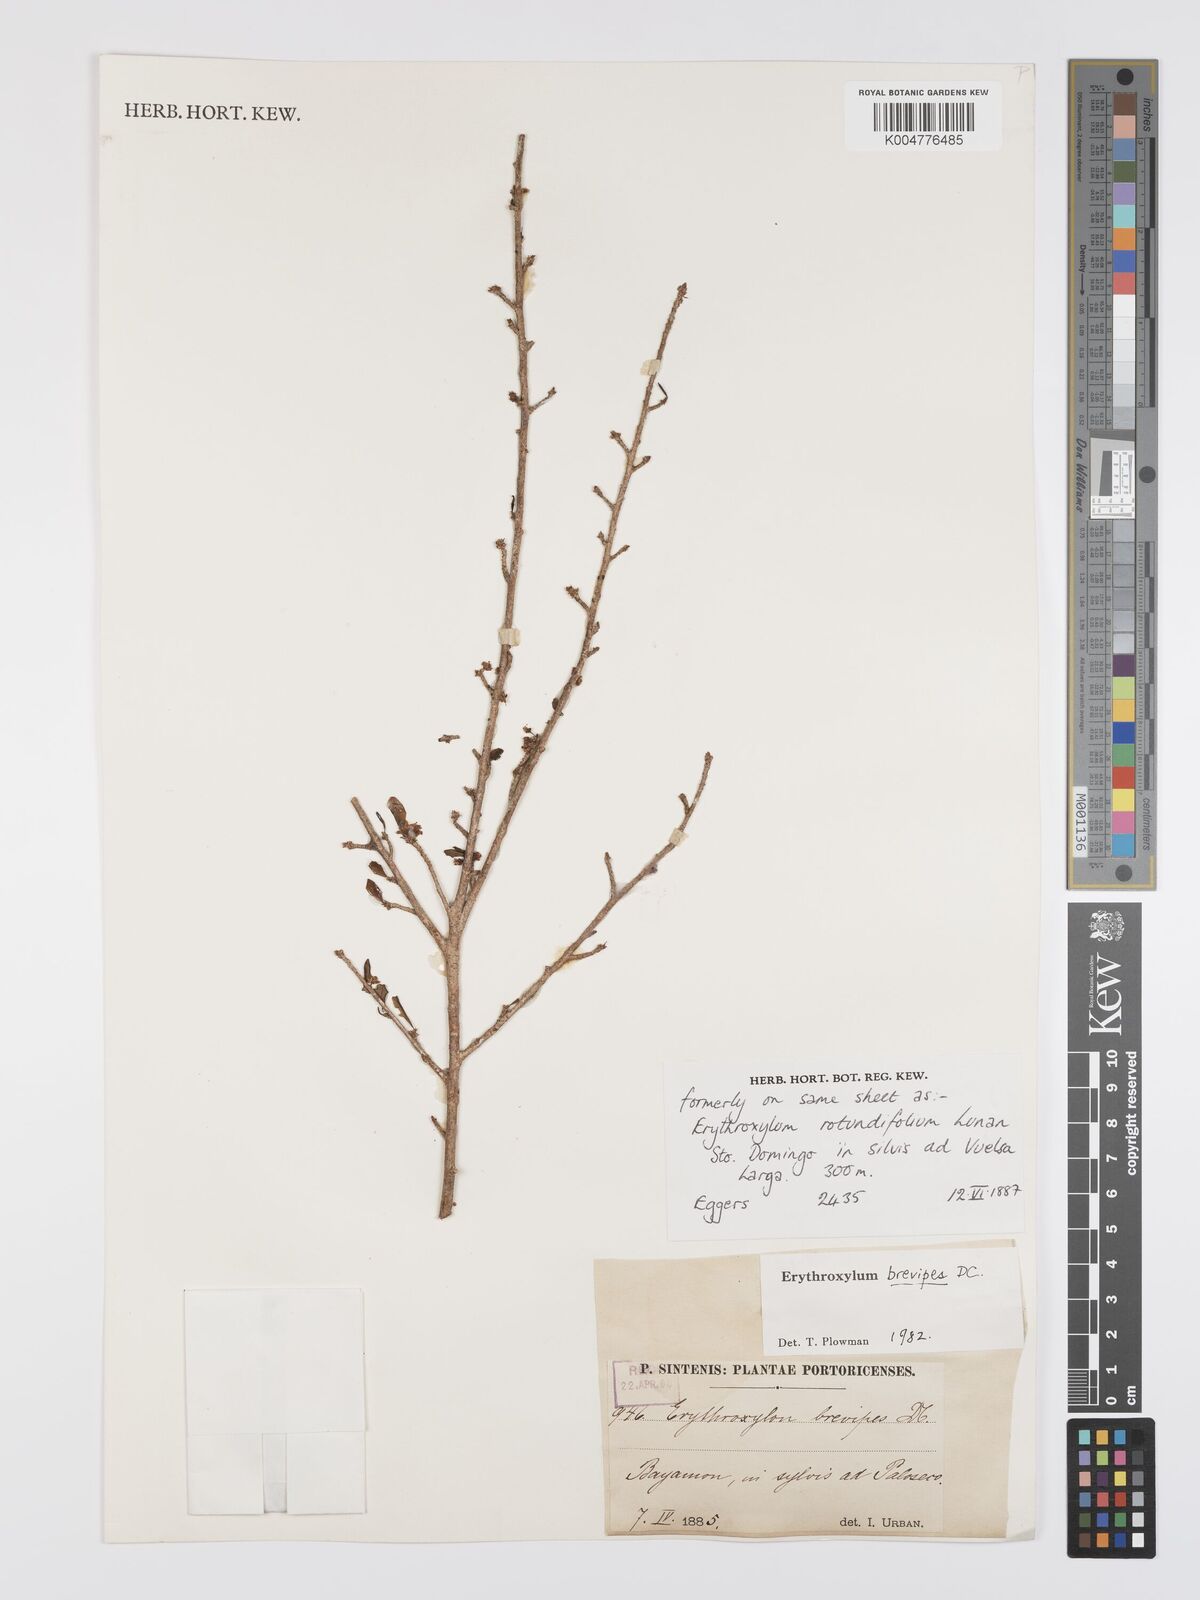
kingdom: Plantae
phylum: Tracheophyta
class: Magnoliopsida
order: Malpighiales
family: Erythroxylaceae
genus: Erythroxylum
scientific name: Erythroxylum brevipes
